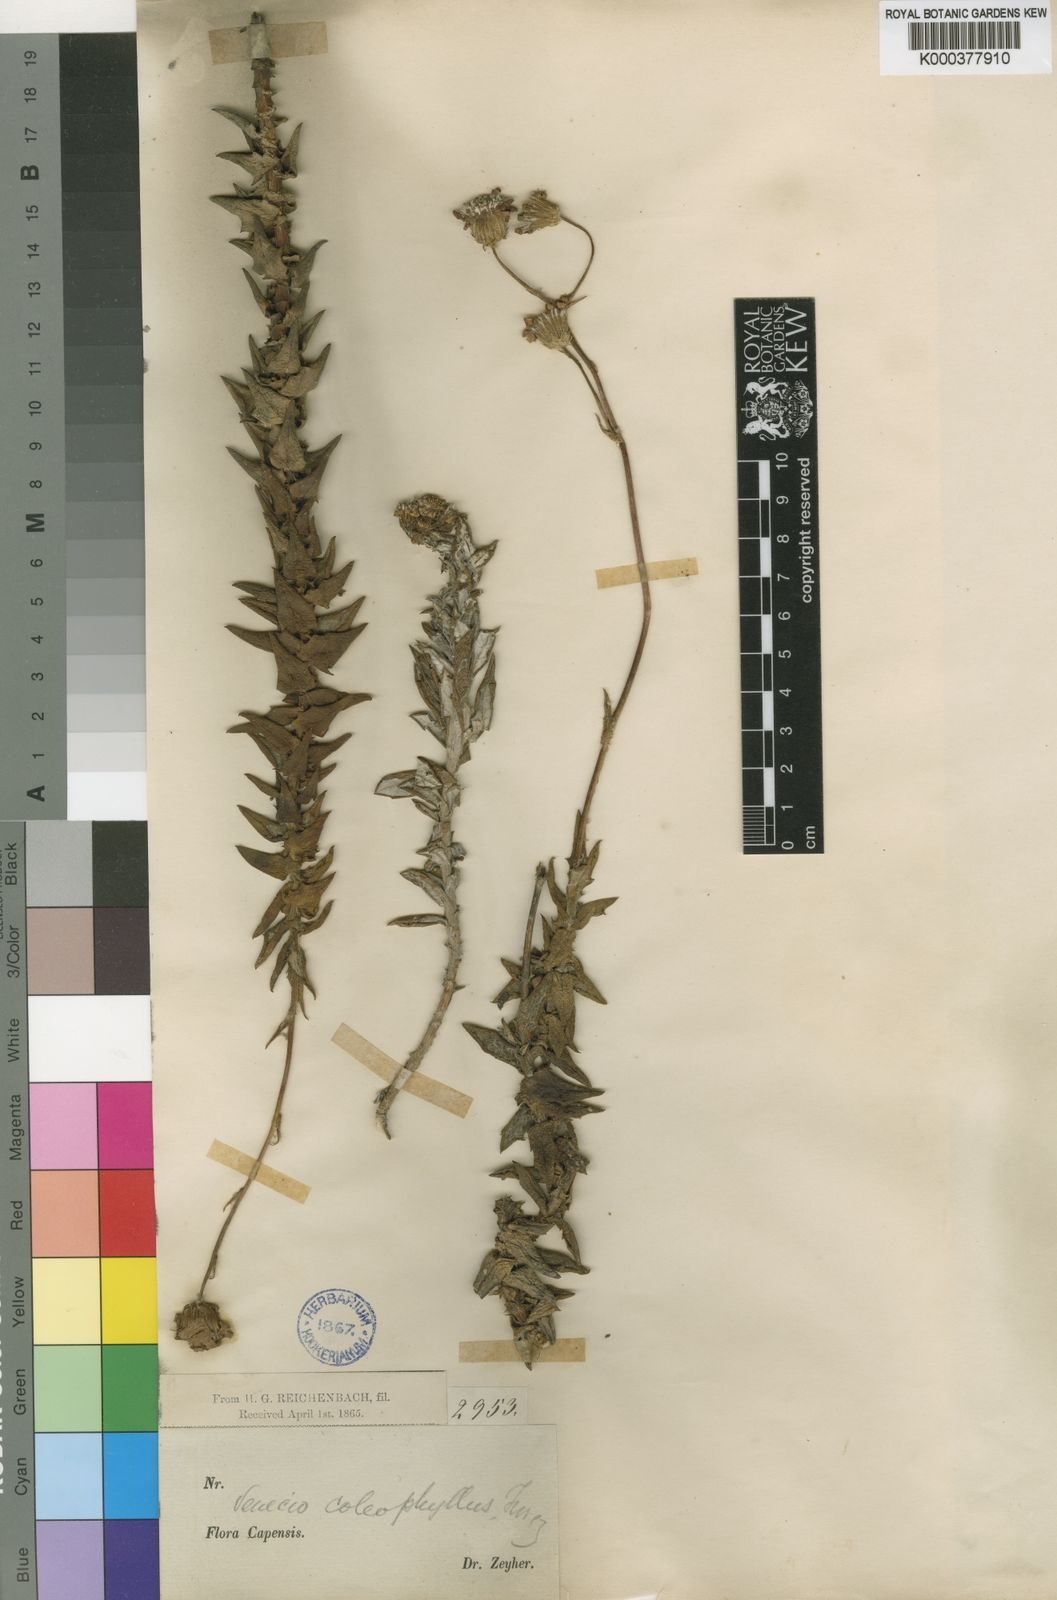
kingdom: Plantae
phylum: Tracheophyta
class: Magnoliopsida
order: Asterales
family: Asteraceae
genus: Senecio
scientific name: Senecio coleophyllus
